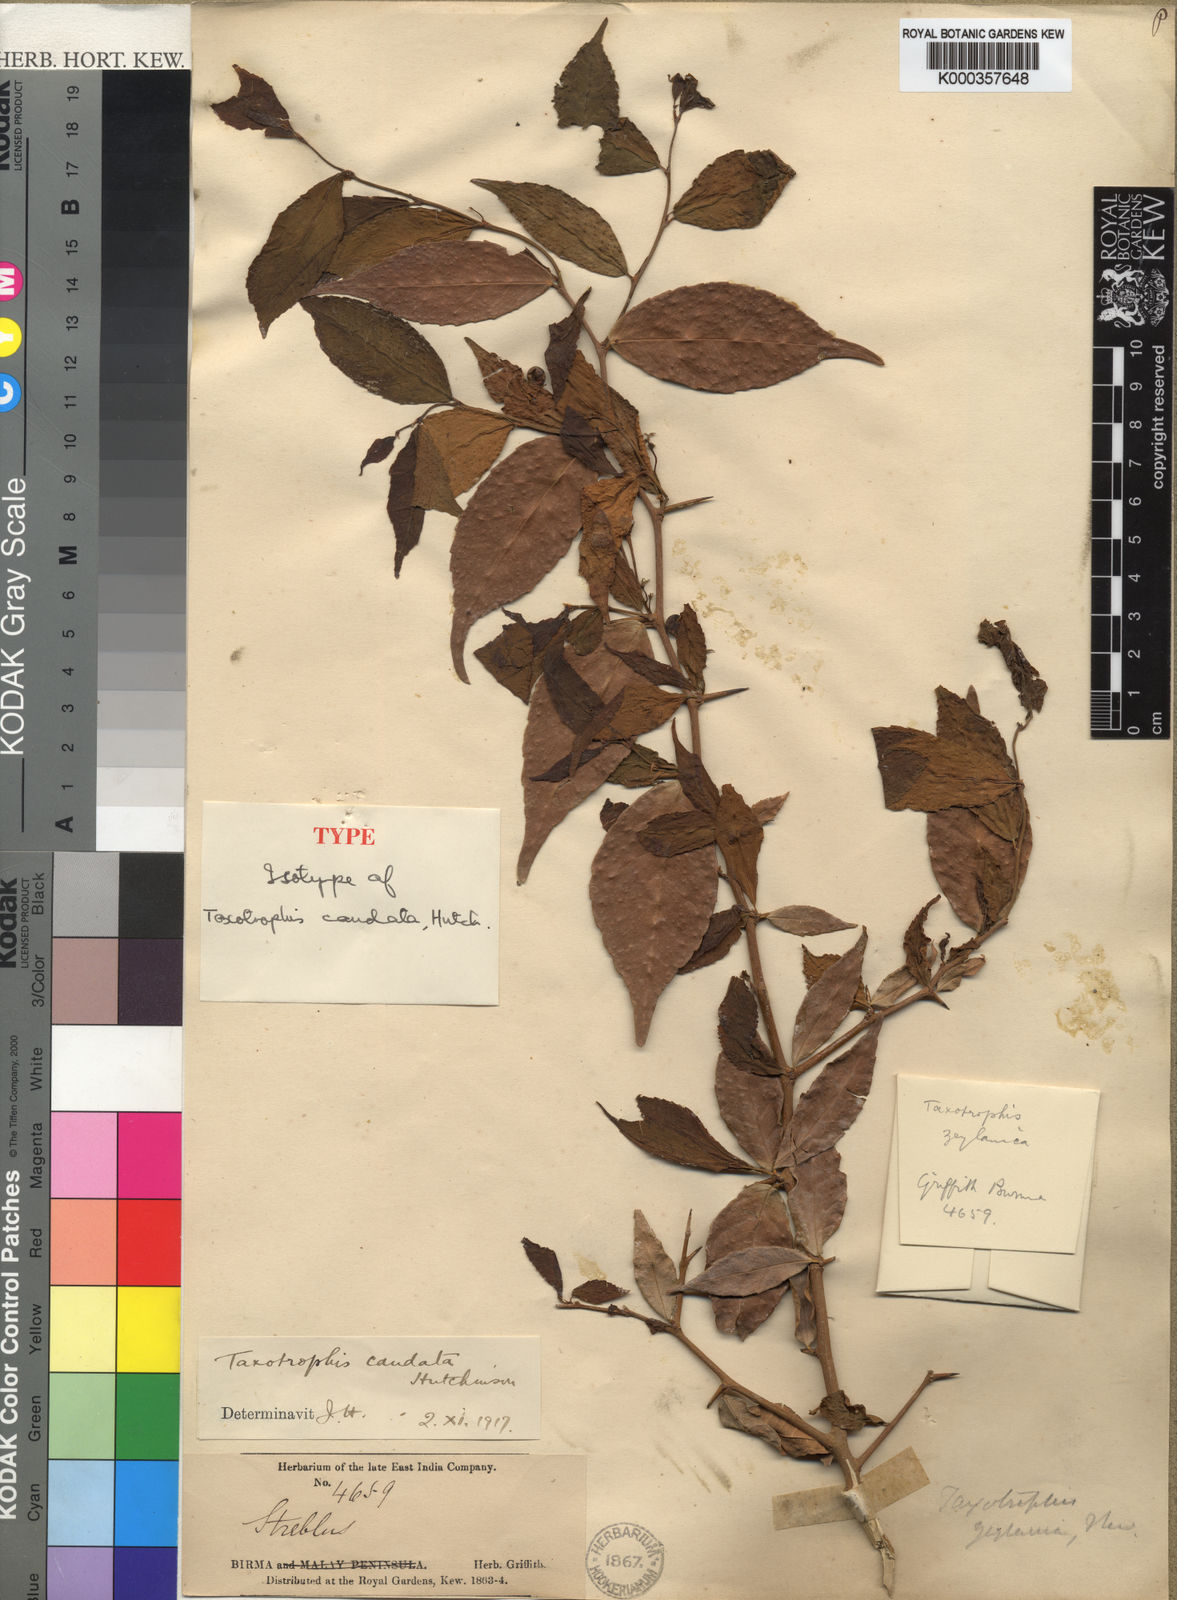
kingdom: Plantae
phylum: Tracheophyta
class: Magnoliopsida
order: Rosales
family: Moraceae
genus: Taxotrophis
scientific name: Taxotrophis zeylanica
